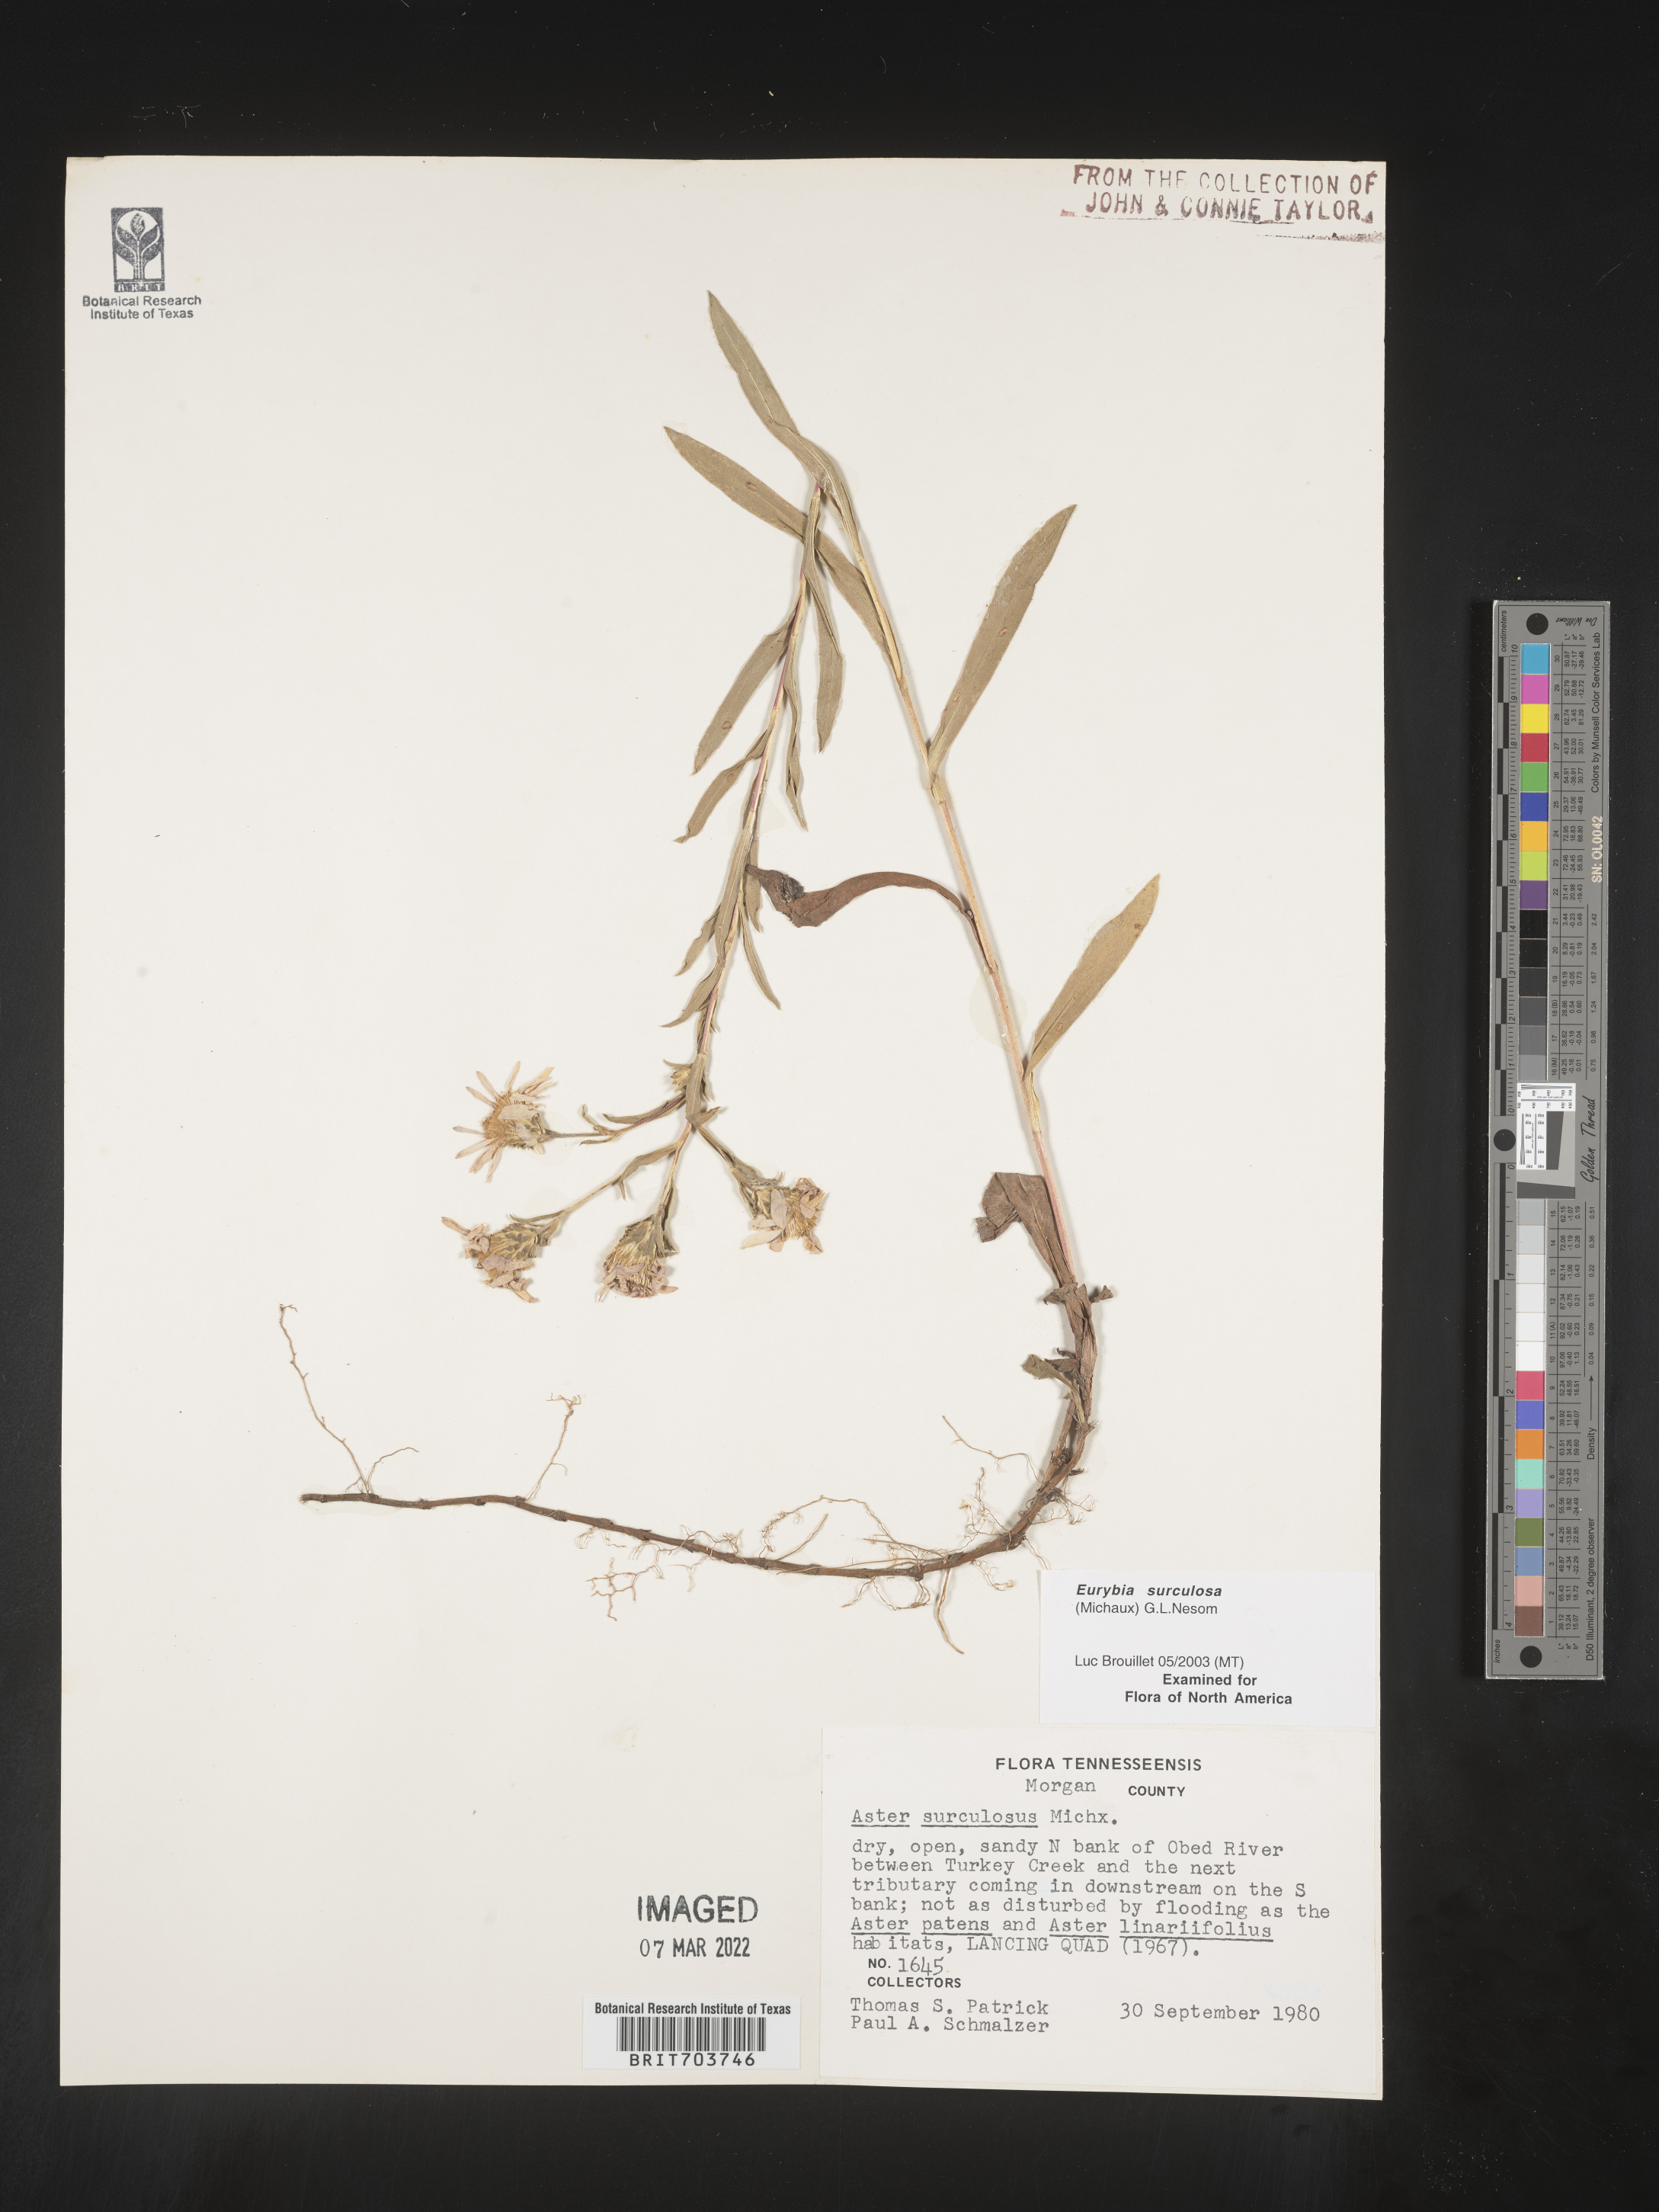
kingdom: Plantae
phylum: Tracheophyta
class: Magnoliopsida
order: Asterales
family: Asteraceae
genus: Eurybia
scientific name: Eurybia surculosa
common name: Creeping aster
